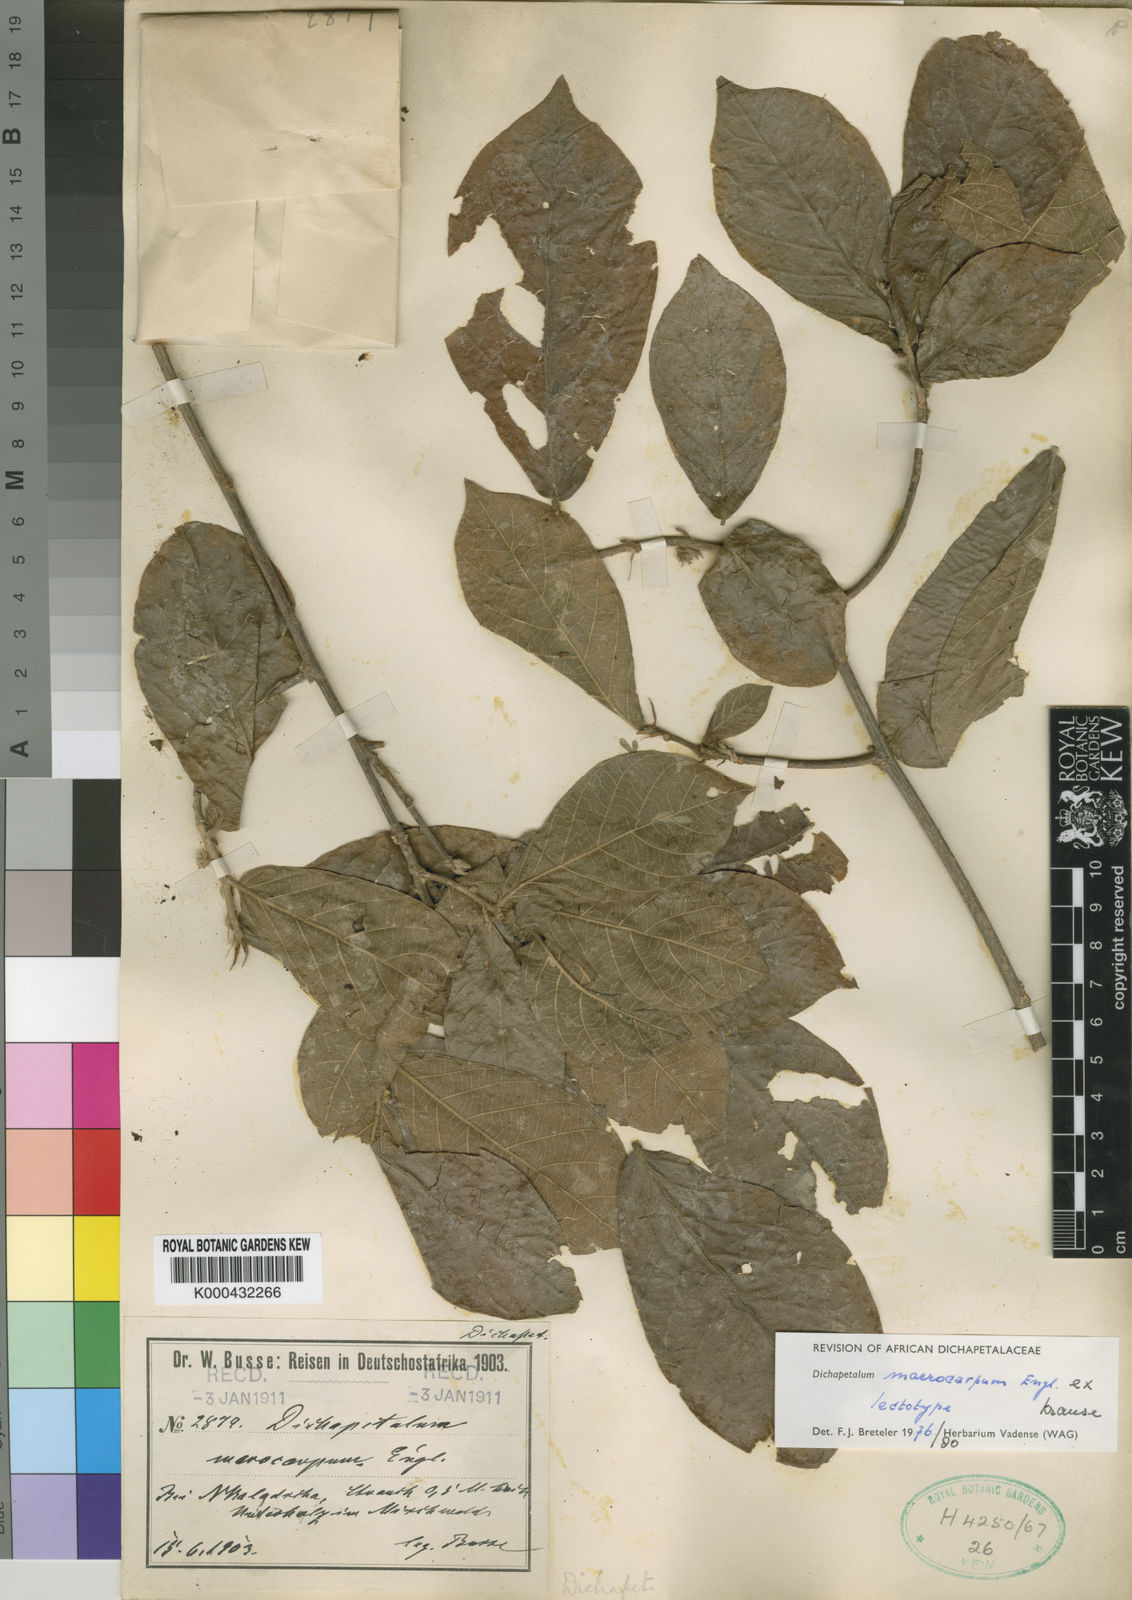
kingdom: Plantae
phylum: Tracheophyta
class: Magnoliopsida
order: Malpighiales
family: Dichapetalaceae
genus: Dichapetalum
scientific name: Dichapetalum
